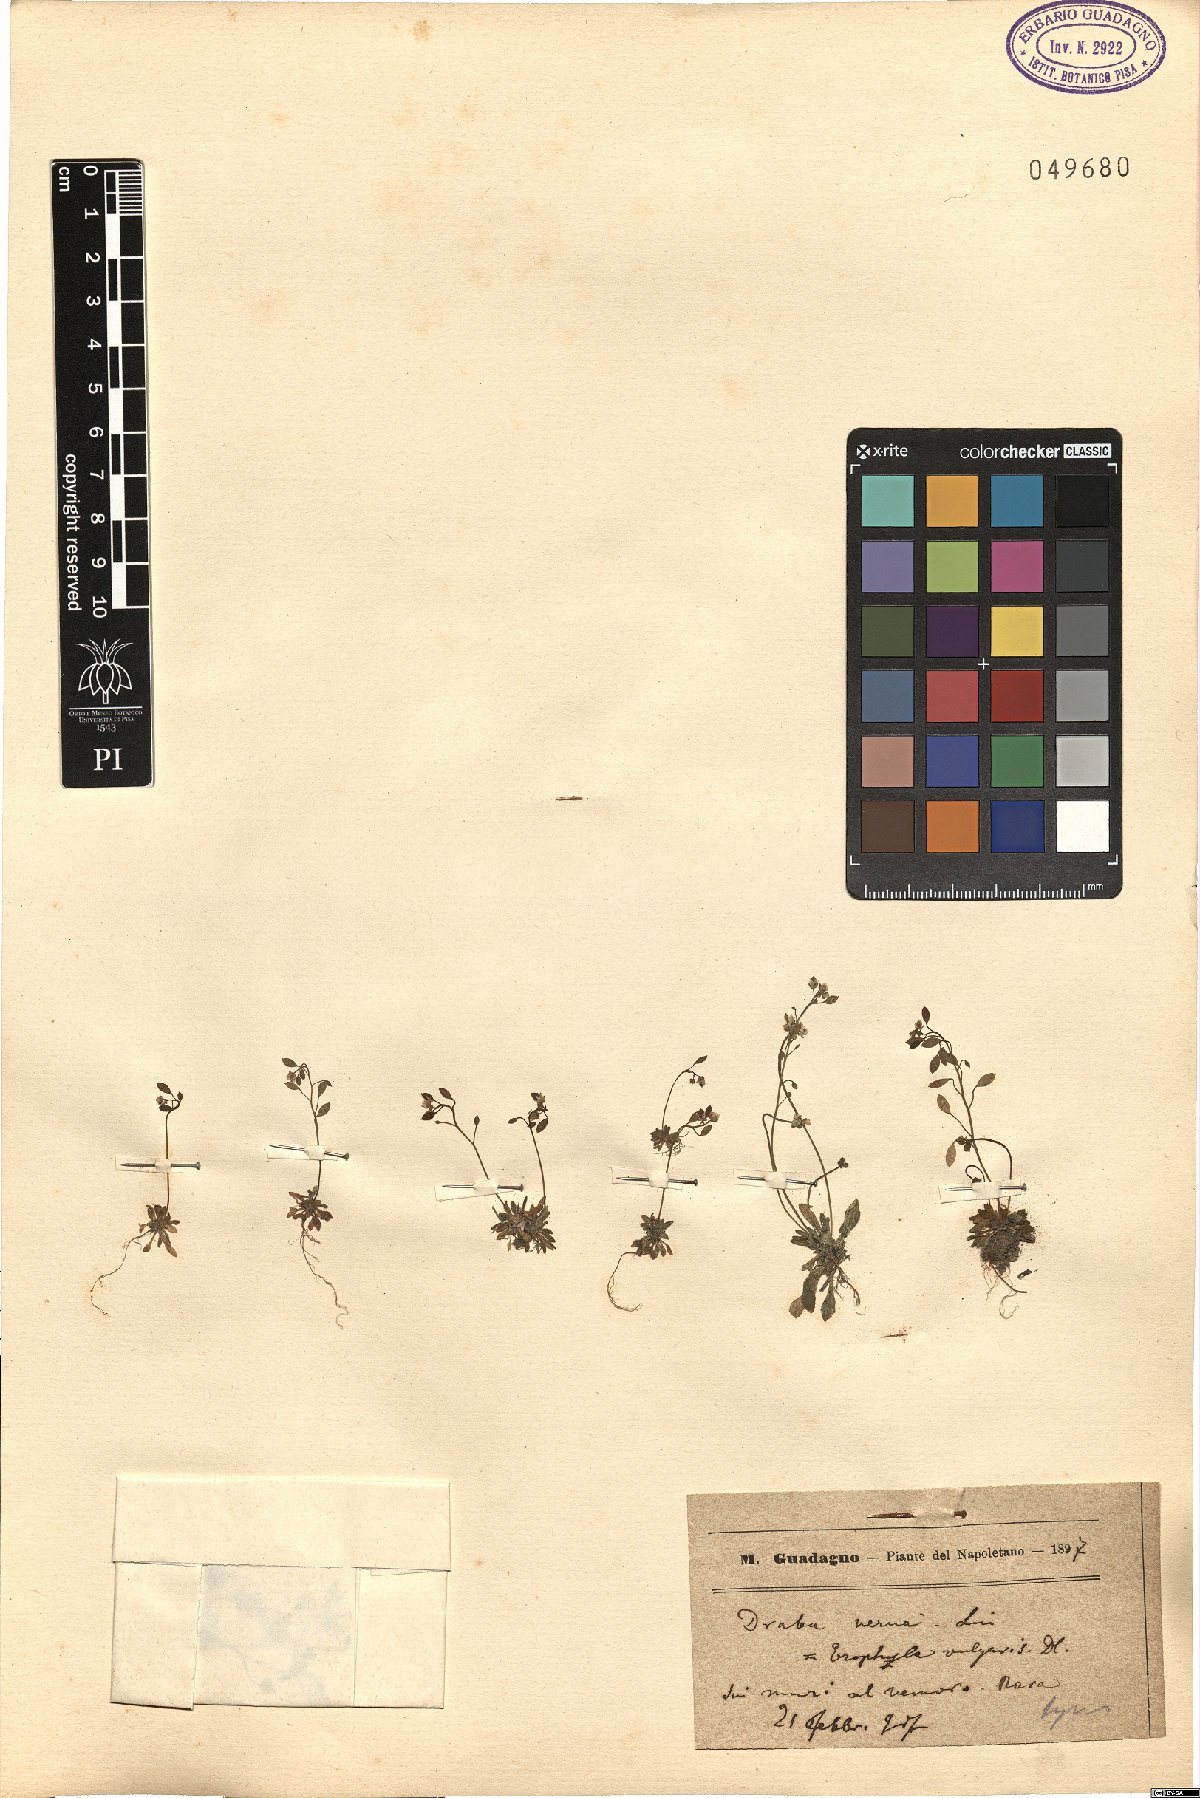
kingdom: Plantae
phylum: Tracheophyta
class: Magnoliopsida
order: Brassicales
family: Brassicaceae
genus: Draba
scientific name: Draba verna
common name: Spring draba
